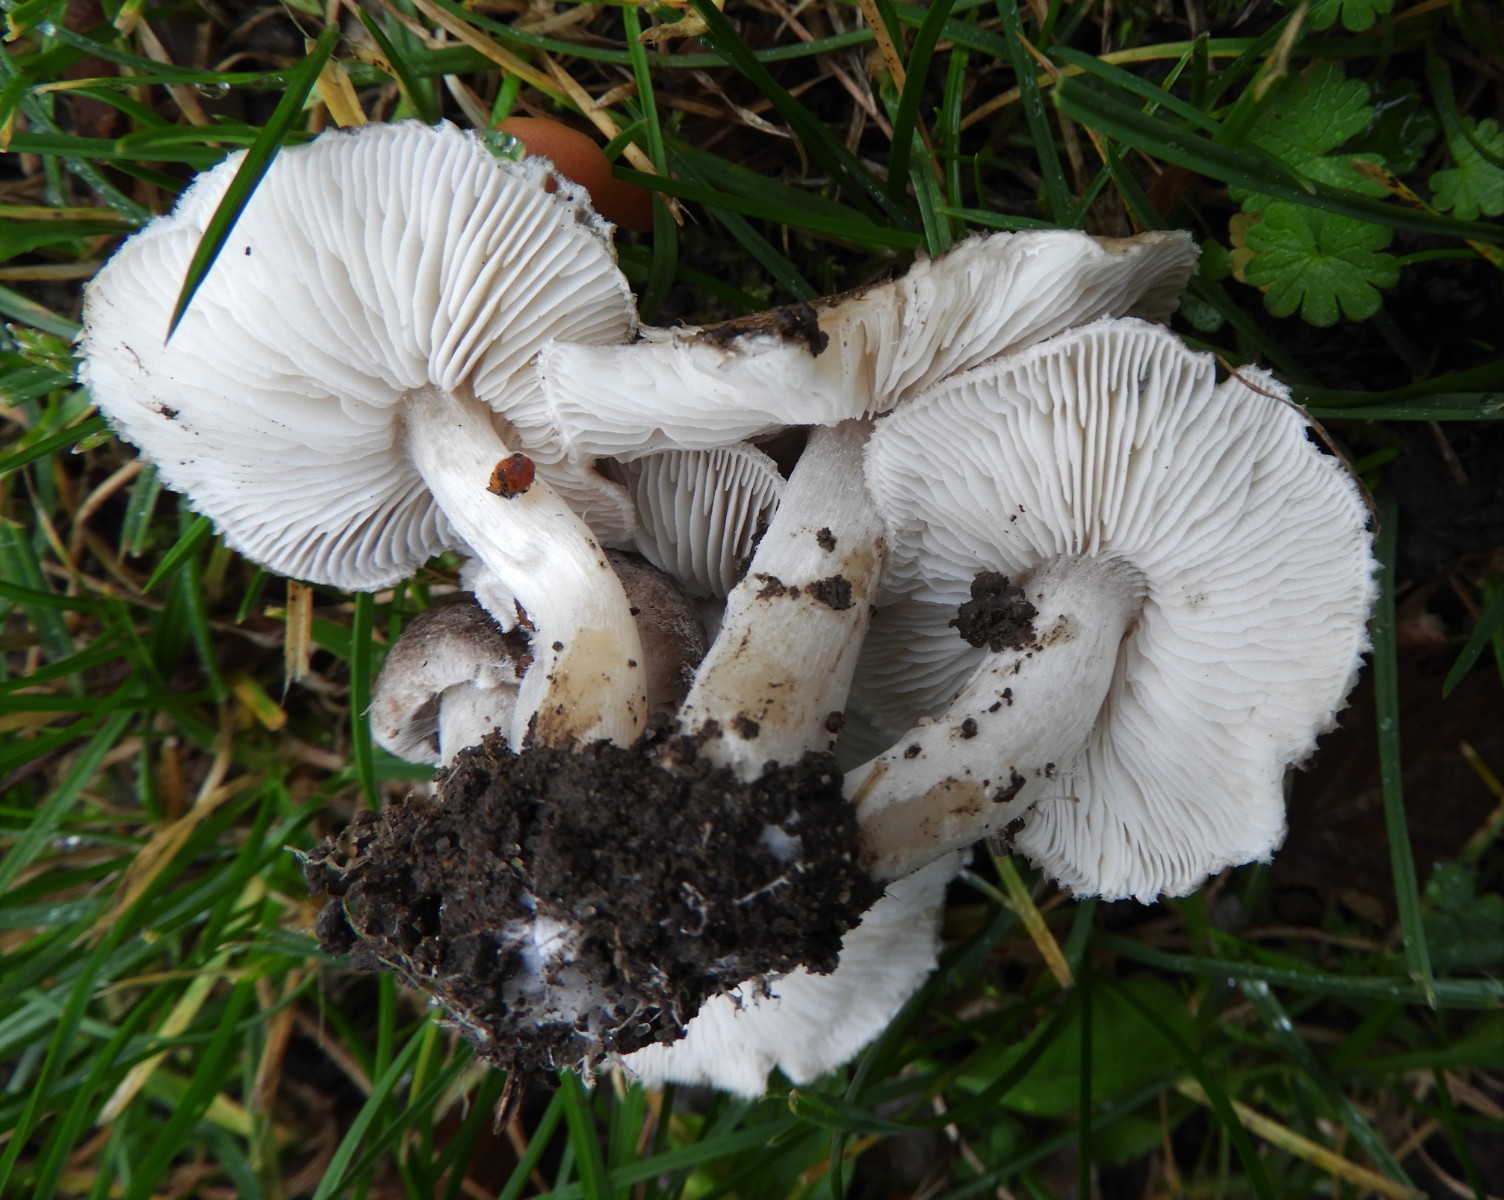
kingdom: Fungi
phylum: Basidiomycota
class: Agaricomycetes
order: Agaricales
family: Tricholomataceae
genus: Tricholoma
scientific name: Tricholoma argyraceum
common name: slør-ridderhat
